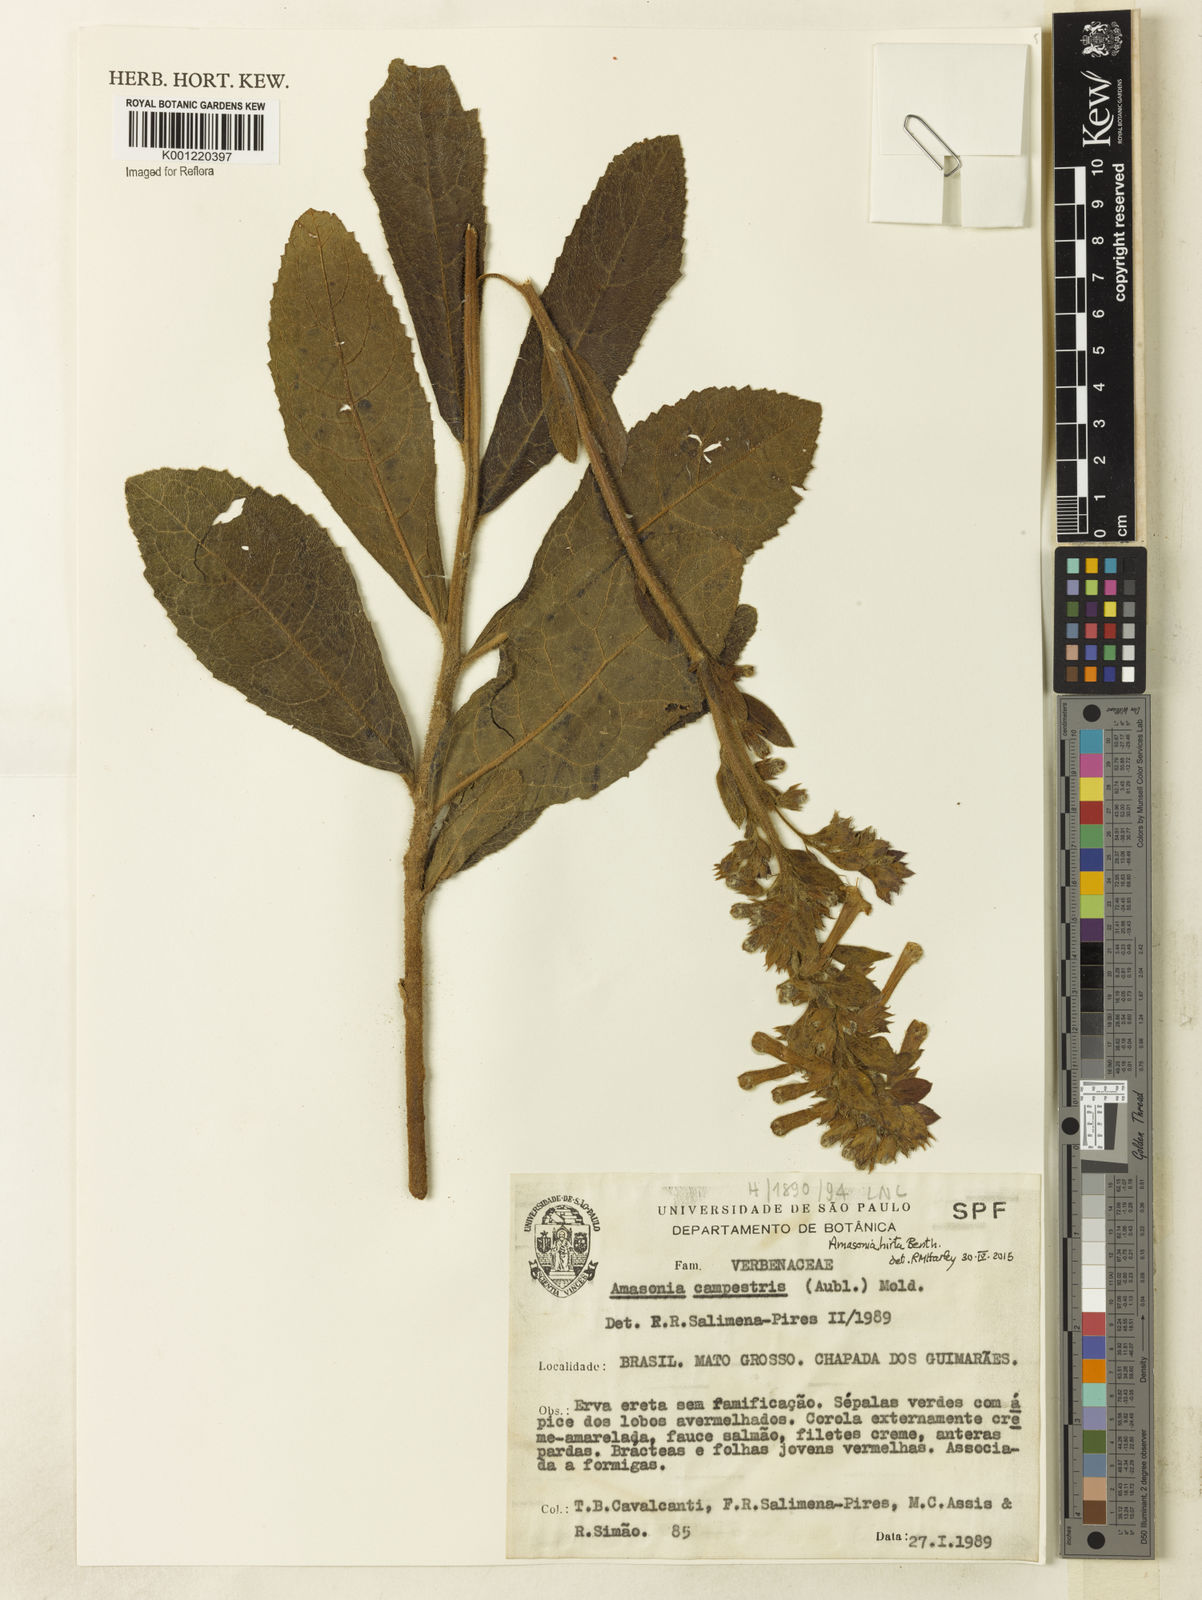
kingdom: Plantae
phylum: Tracheophyta
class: Magnoliopsida
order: Lamiales
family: Lamiaceae
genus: Amasonia
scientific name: Amasonia hirta
